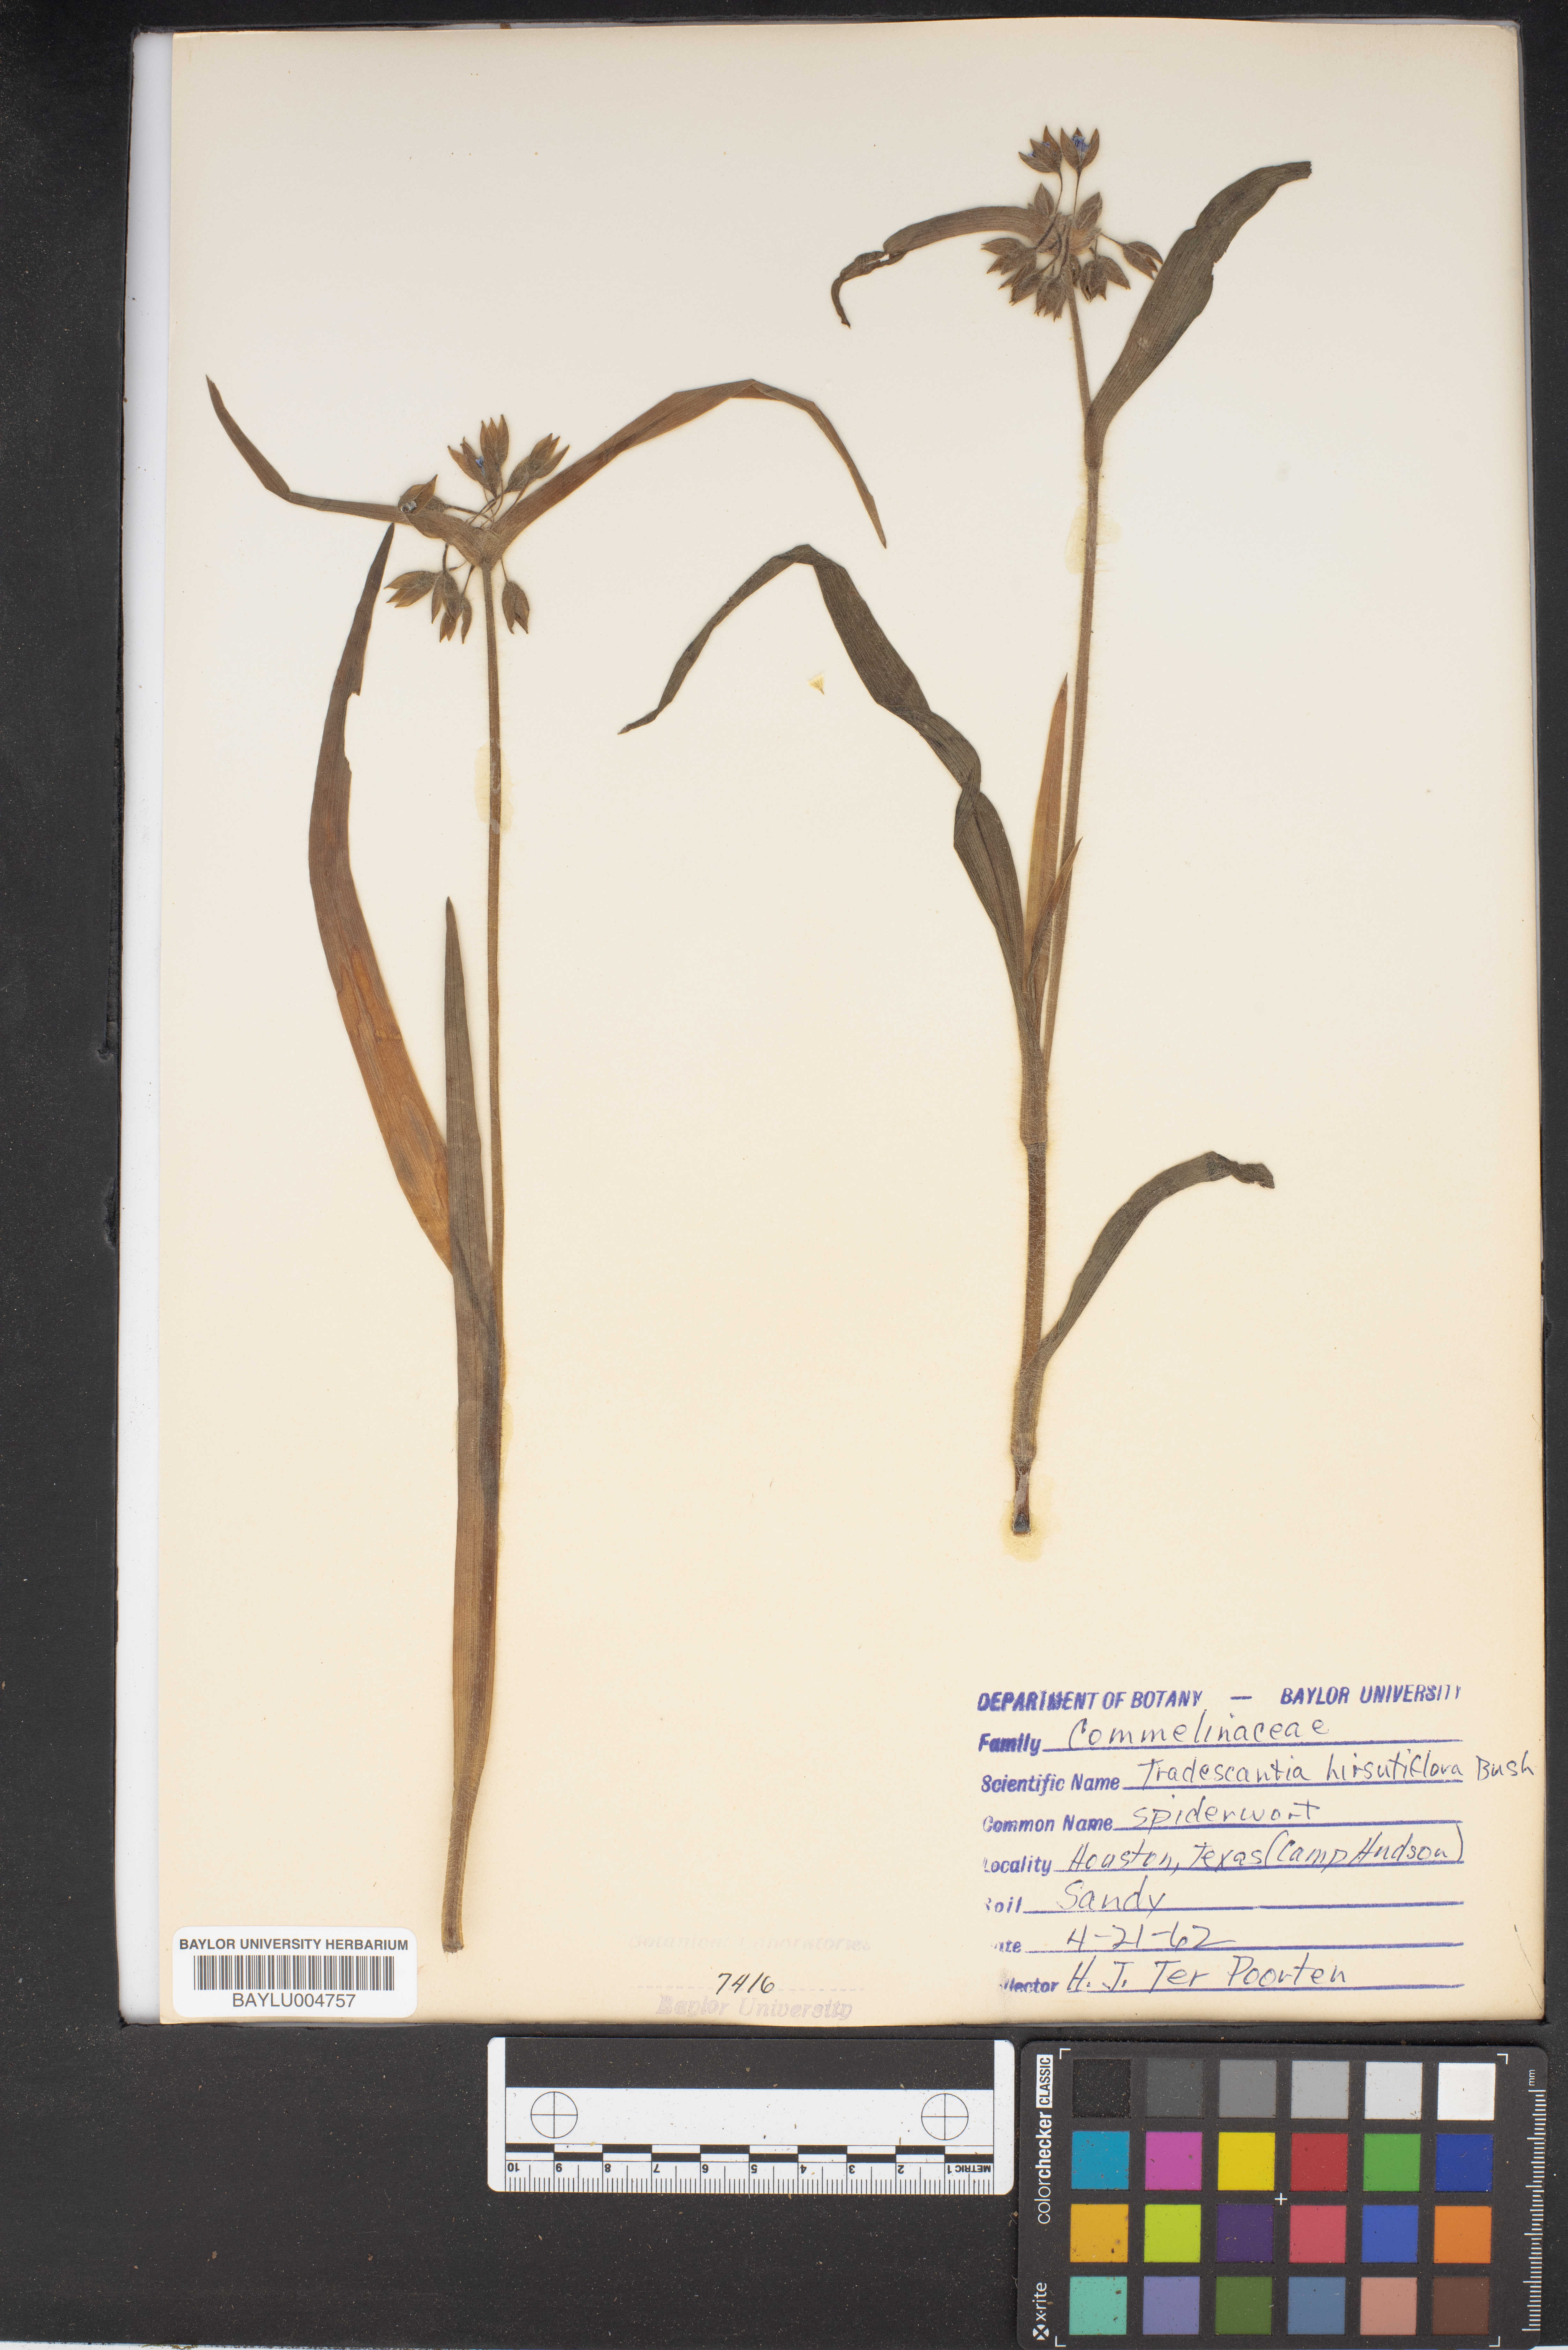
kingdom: Plantae
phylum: Tracheophyta
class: Liliopsida
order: Commelinales
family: Commelinaceae
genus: Tradescantia
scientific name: Tradescantia hirsutiflora
